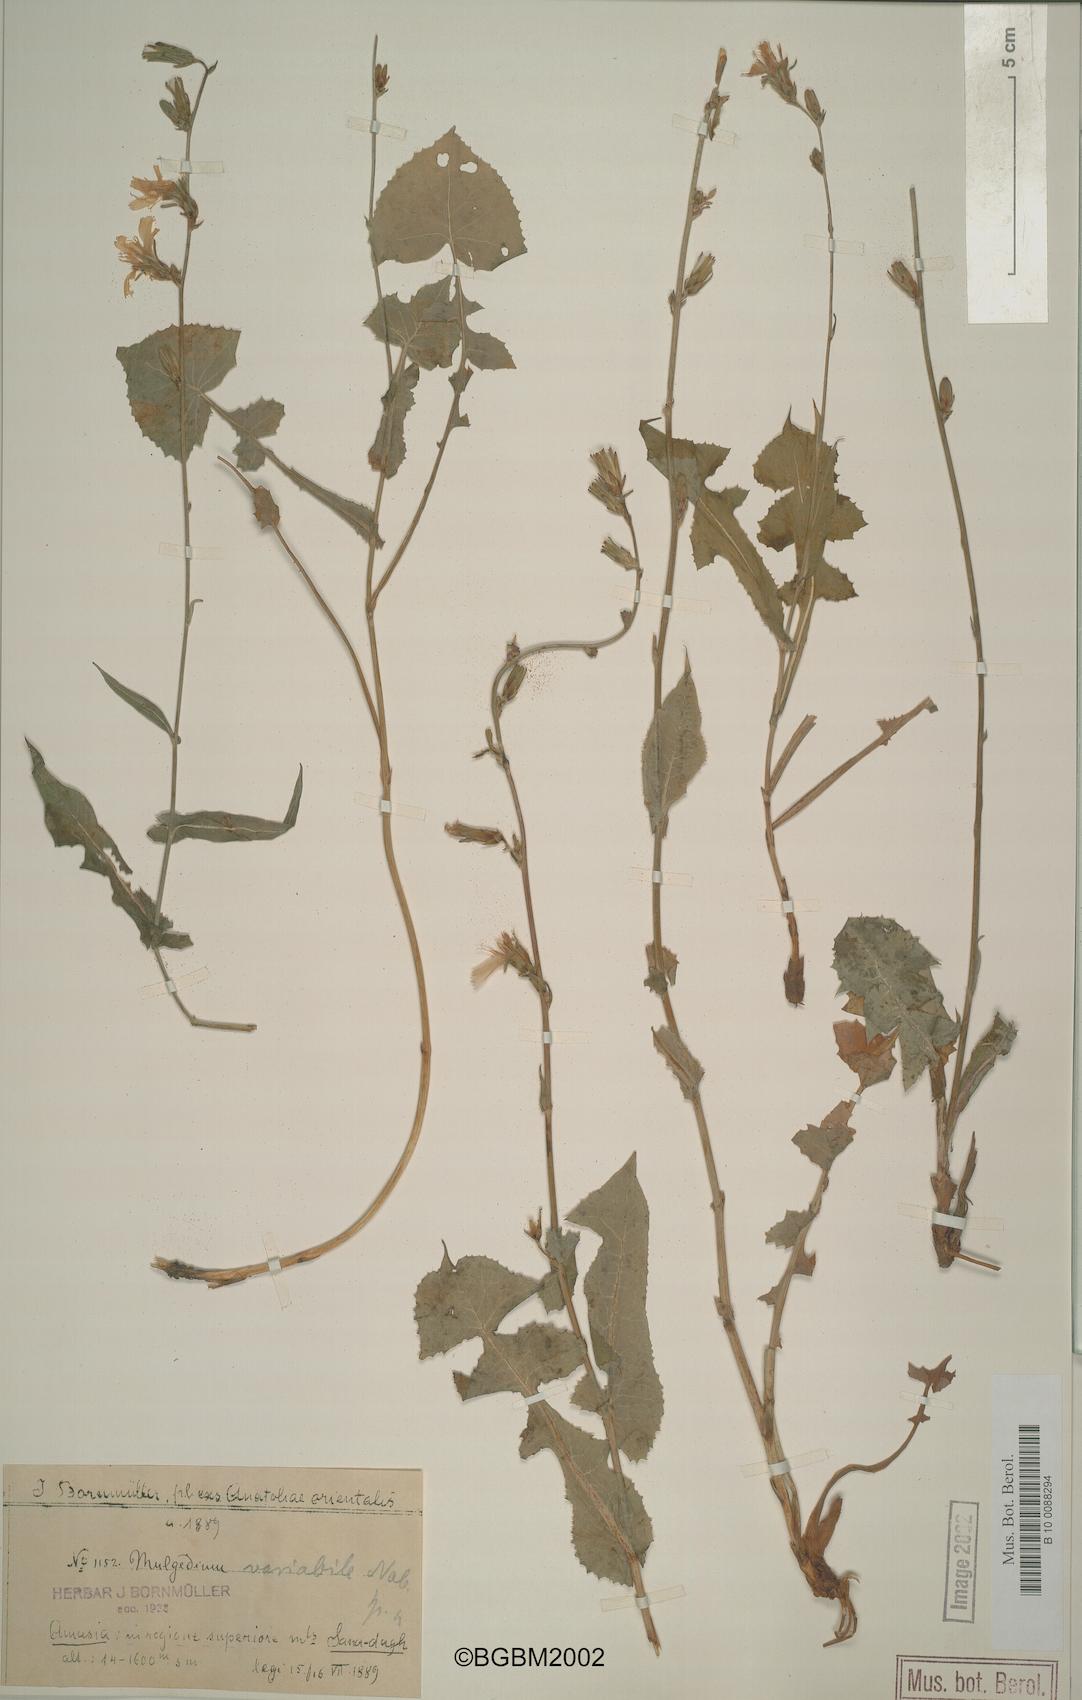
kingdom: Plantae
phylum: Tracheophyta
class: Magnoliopsida
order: Asterales
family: Asteraceae
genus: Lactuca
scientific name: Lactuca variabilis
